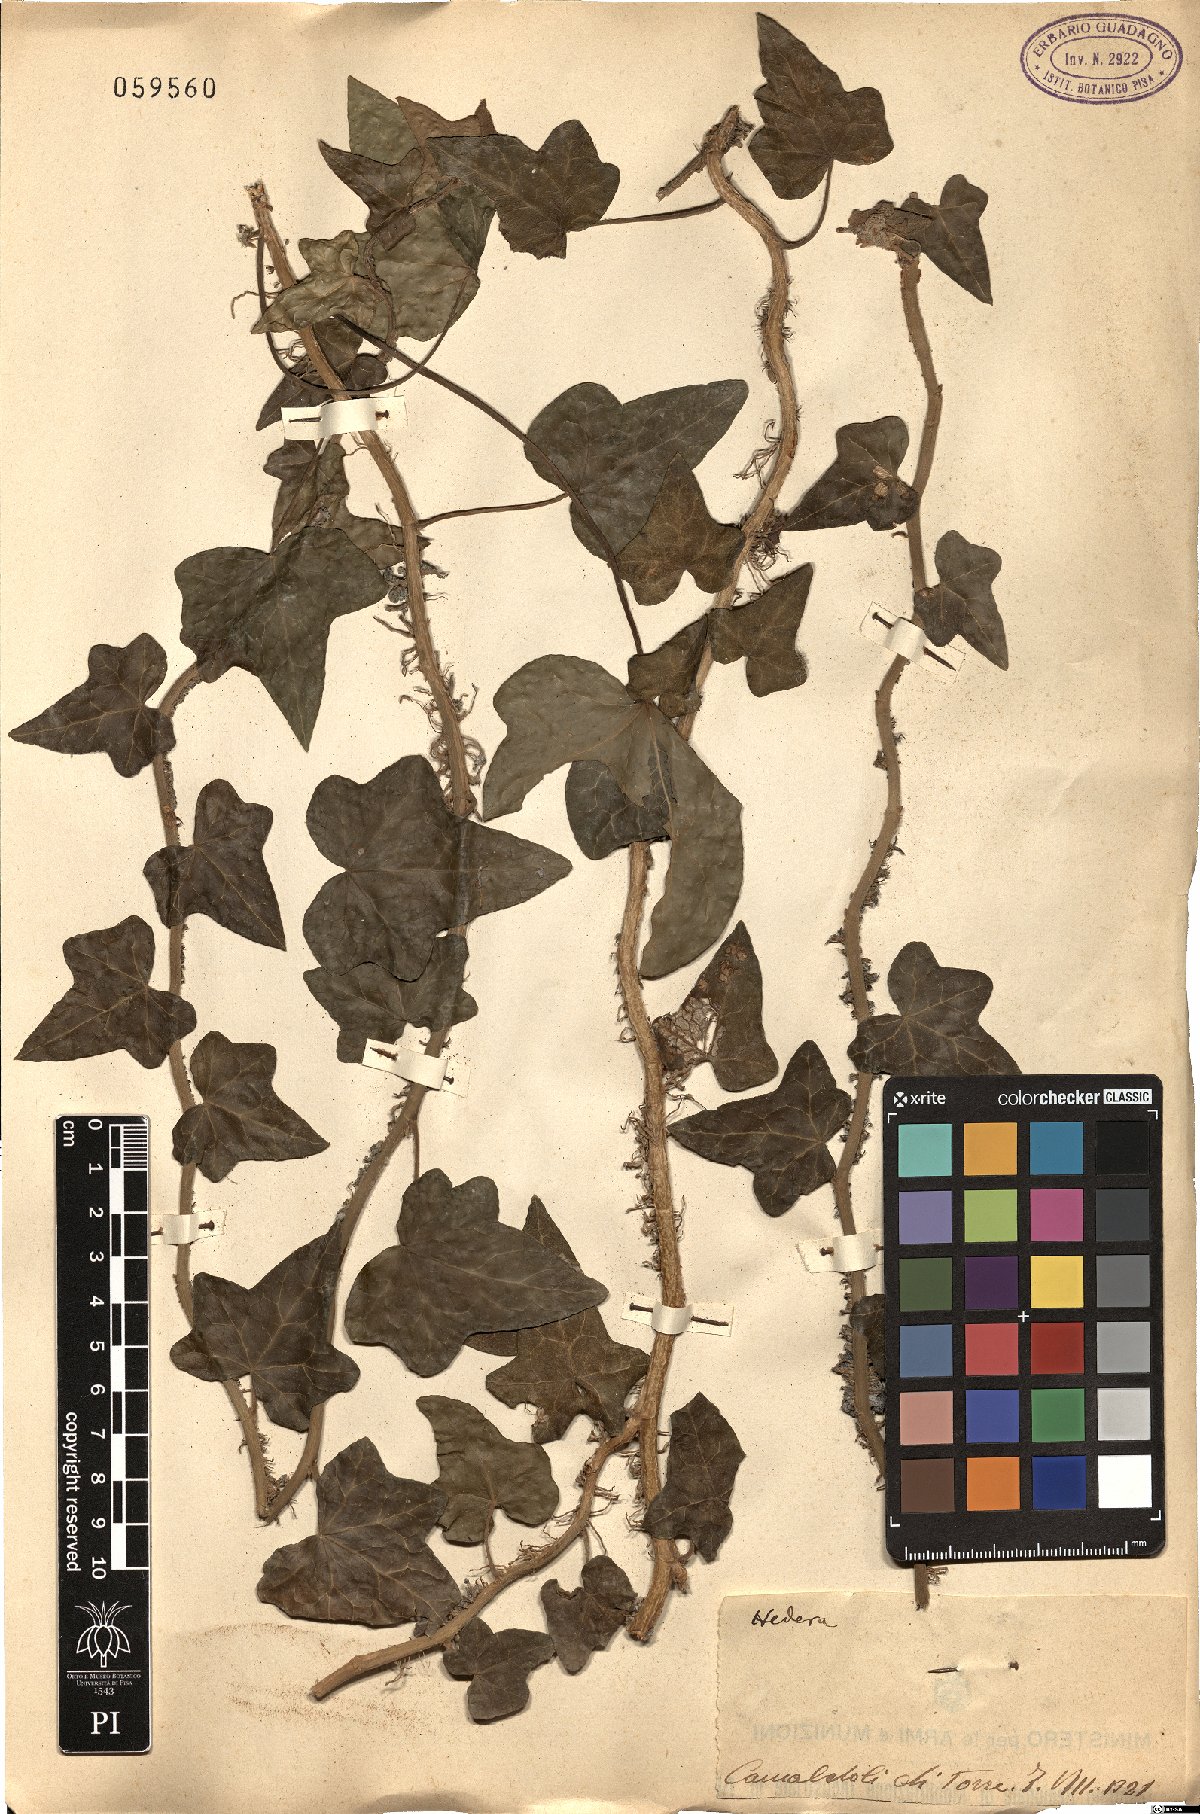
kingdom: Plantae
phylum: Tracheophyta
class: Magnoliopsida
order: Apiales
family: Araliaceae
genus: Hedera
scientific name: Hedera helix
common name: Ivy
